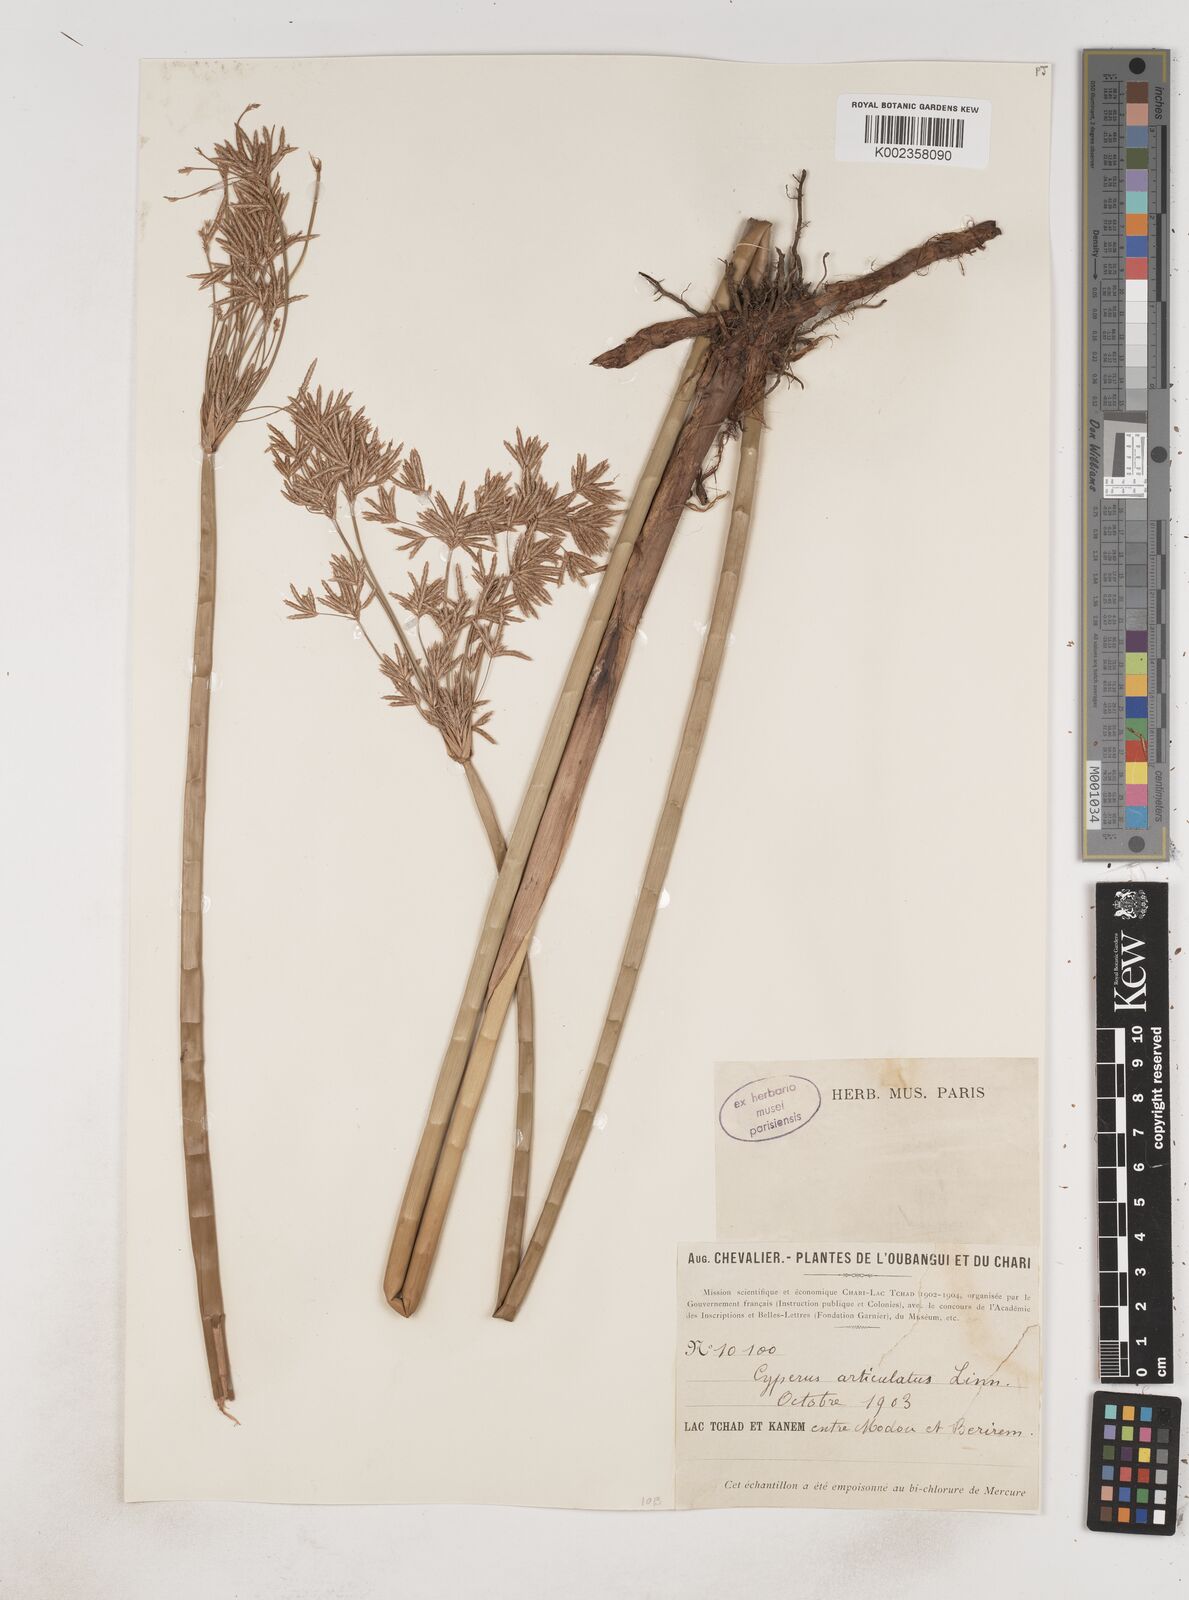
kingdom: Plantae
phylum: Tracheophyta
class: Liliopsida
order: Poales
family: Cyperaceae
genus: Cyperus
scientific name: Cyperus articulatus
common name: Jointed flatsedge
